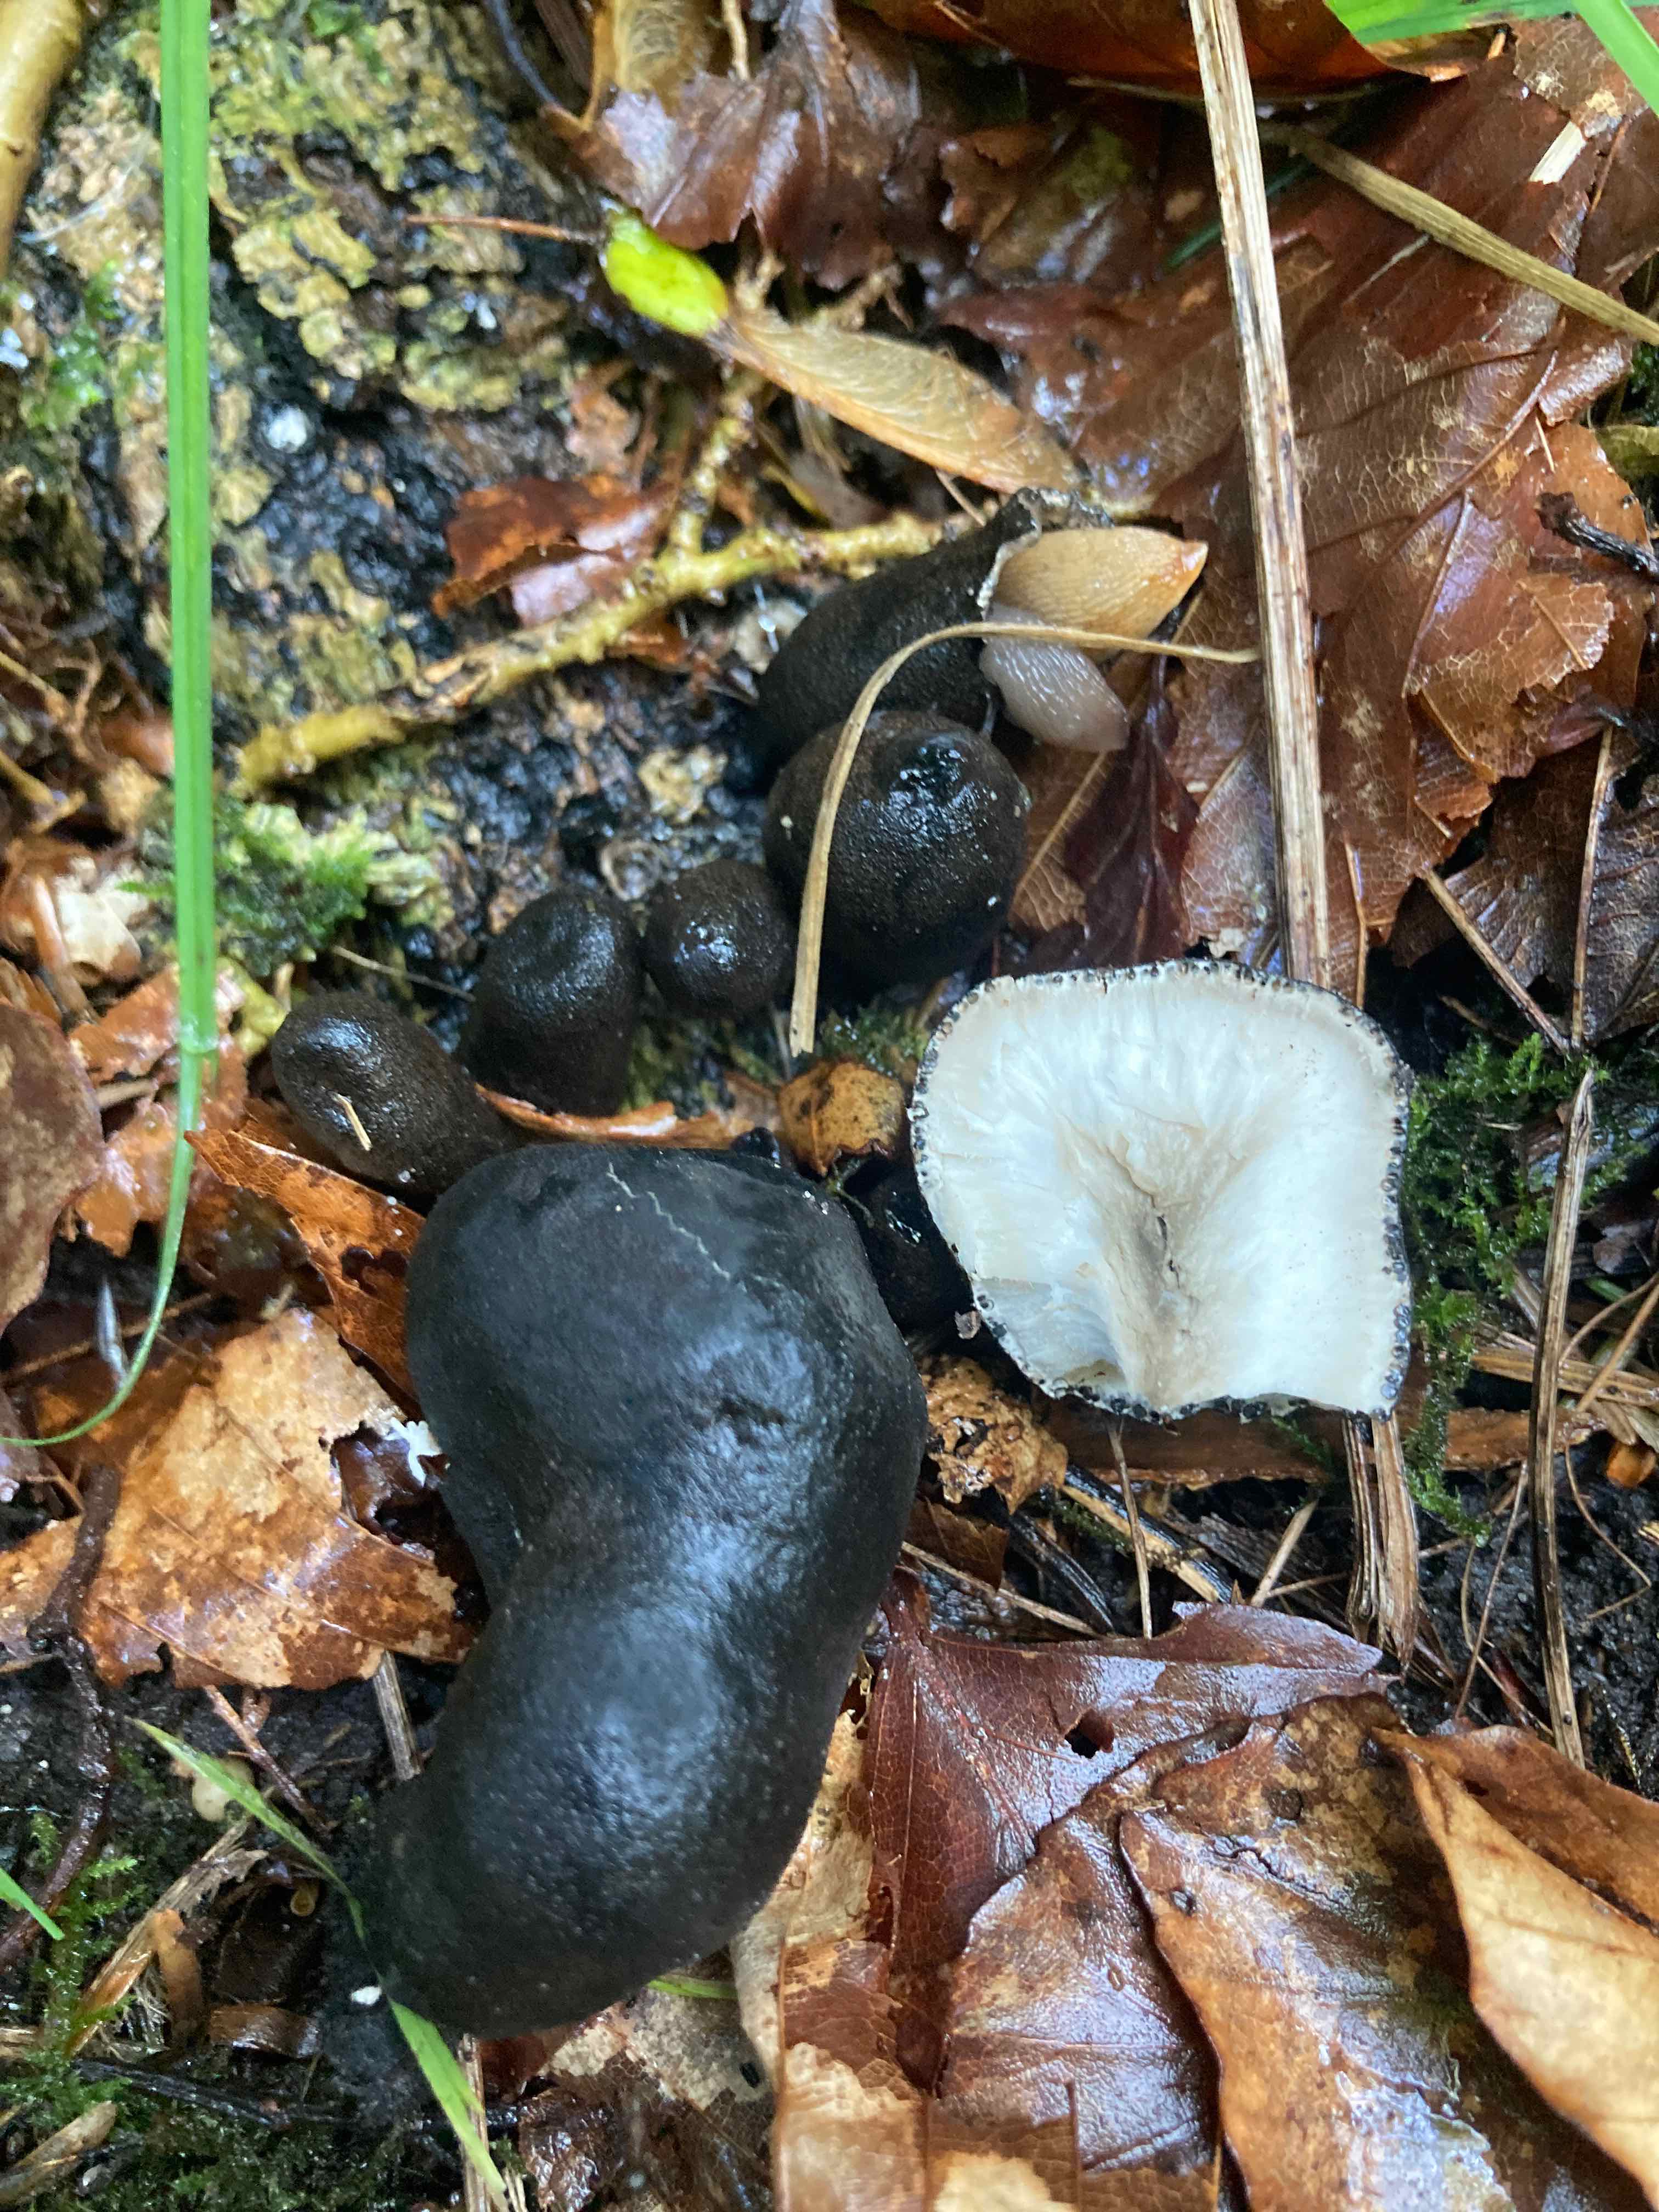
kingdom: Fungi
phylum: Ascomycota
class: Sordariomycetes
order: Xylariales
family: Xylariaceae
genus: Xylaria
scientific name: Xylaria polymorpha
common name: kølle-stødsvamp
